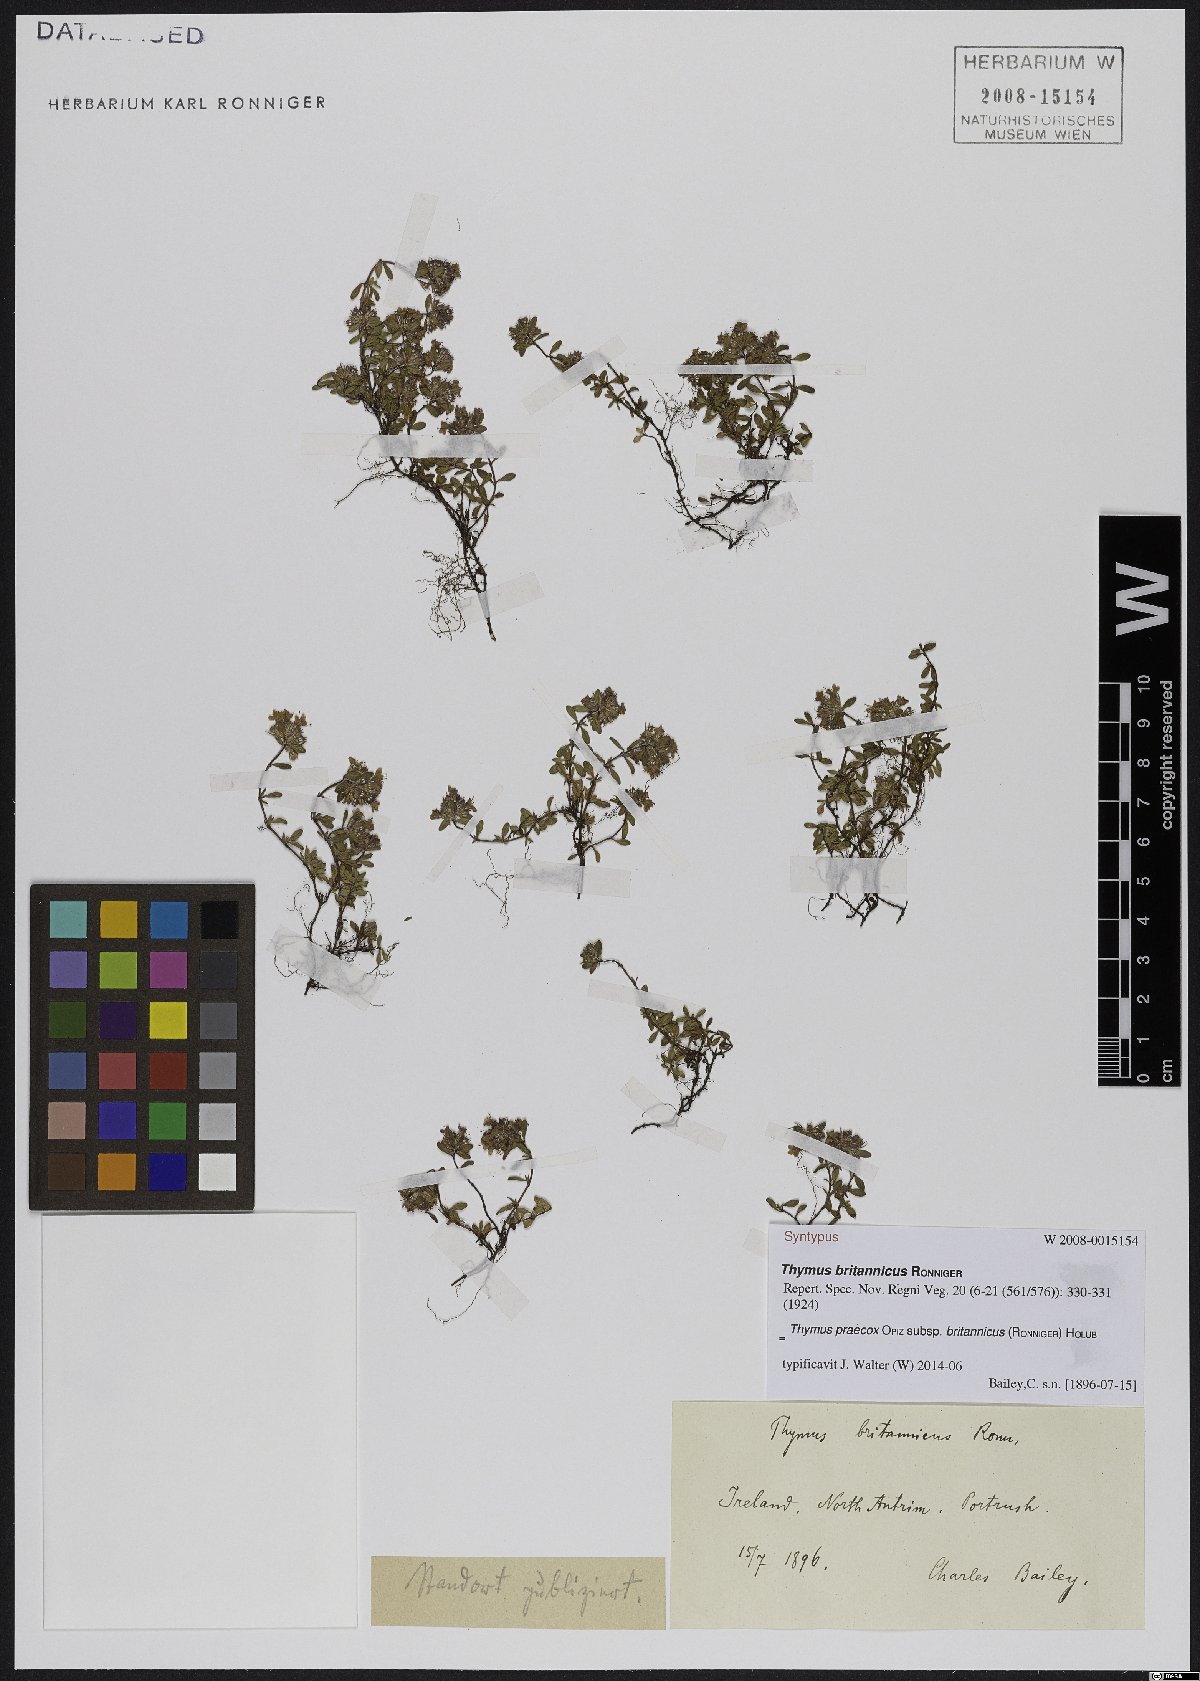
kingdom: Plantae
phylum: Tracheophyta
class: Magnoliopsida
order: Lamiales
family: Lamiaceae
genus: Thymus
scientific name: Thymus praecox
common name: Wild thyme
